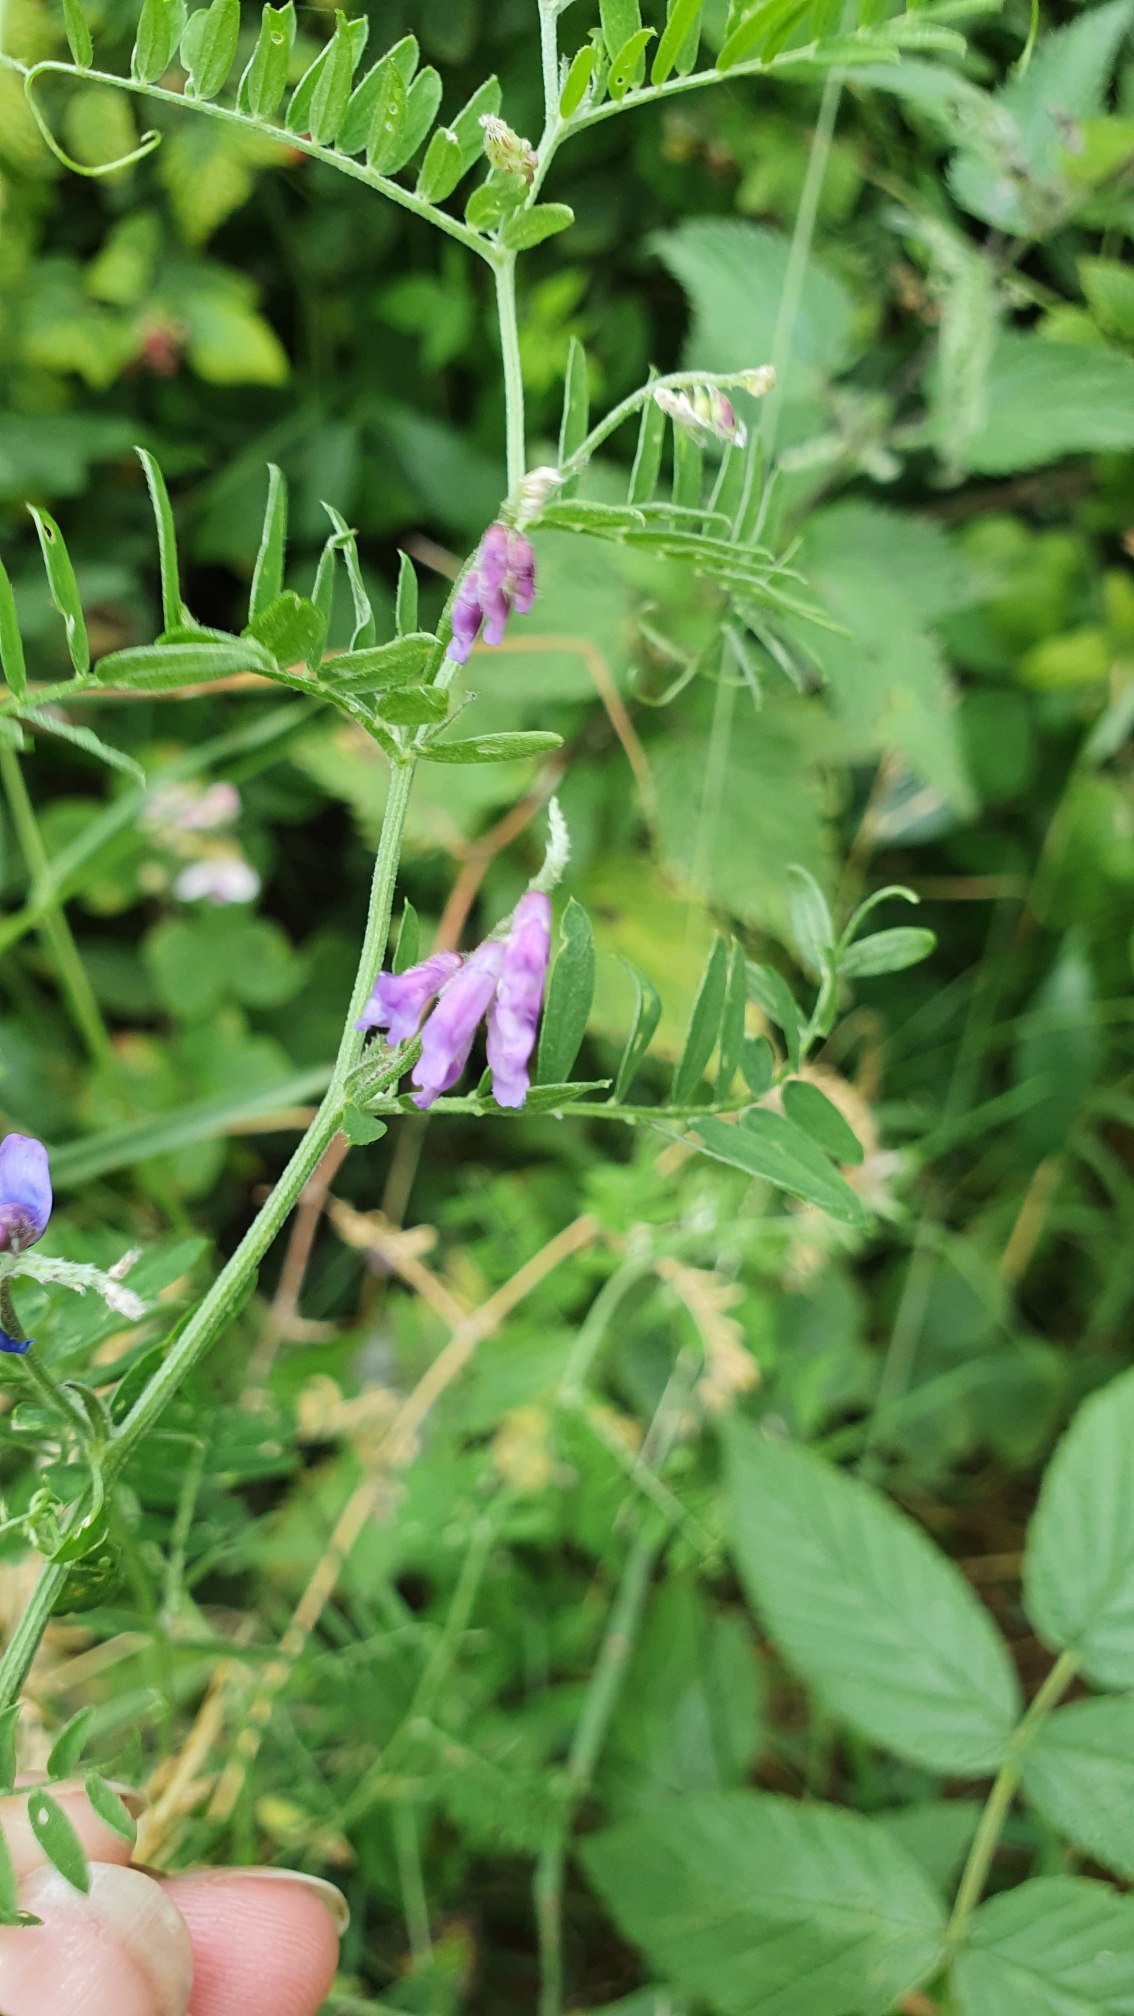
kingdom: Plantae
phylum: Tracheophyta
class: Magnoliopsida
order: Fabales
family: Fabaceae
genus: Vicia
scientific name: Vicia cracca
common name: Muse-vikke
